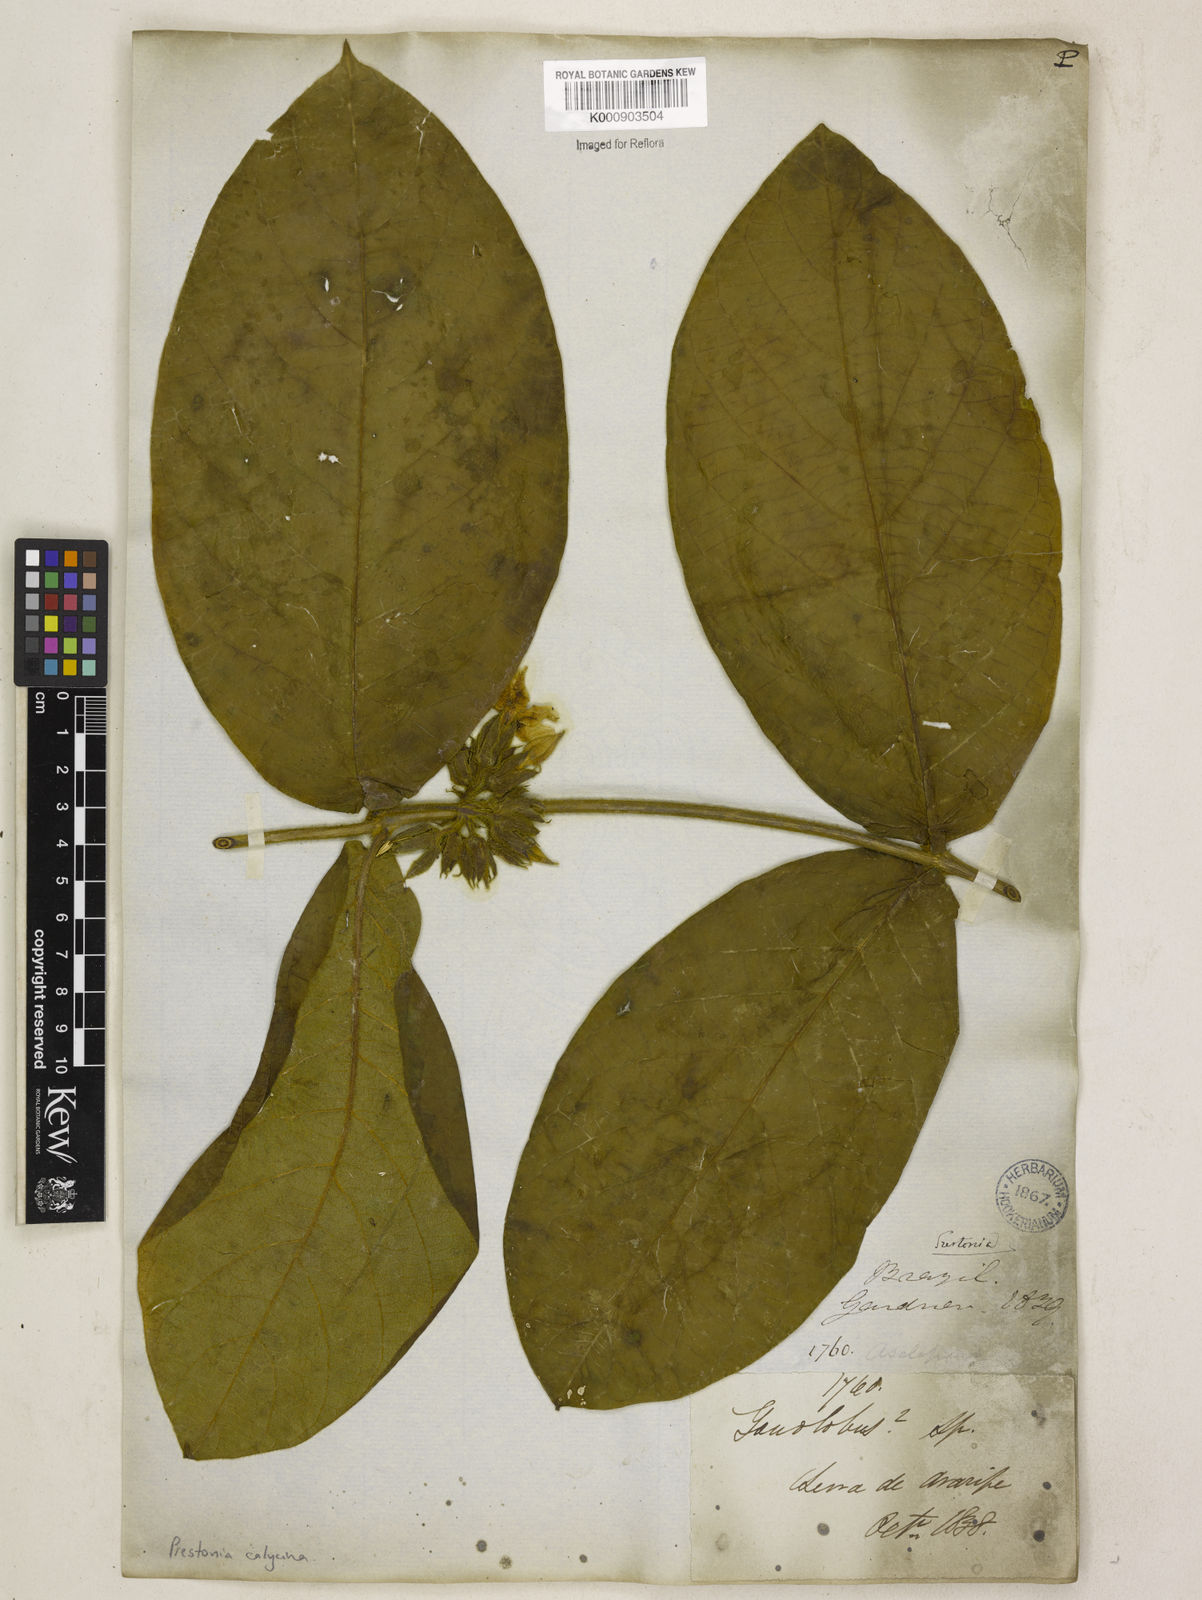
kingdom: Plantae
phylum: Tracheophyta
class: Magnoliopsida
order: Gentianales
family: Apocynaceae
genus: Prestonia
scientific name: Prestonia
